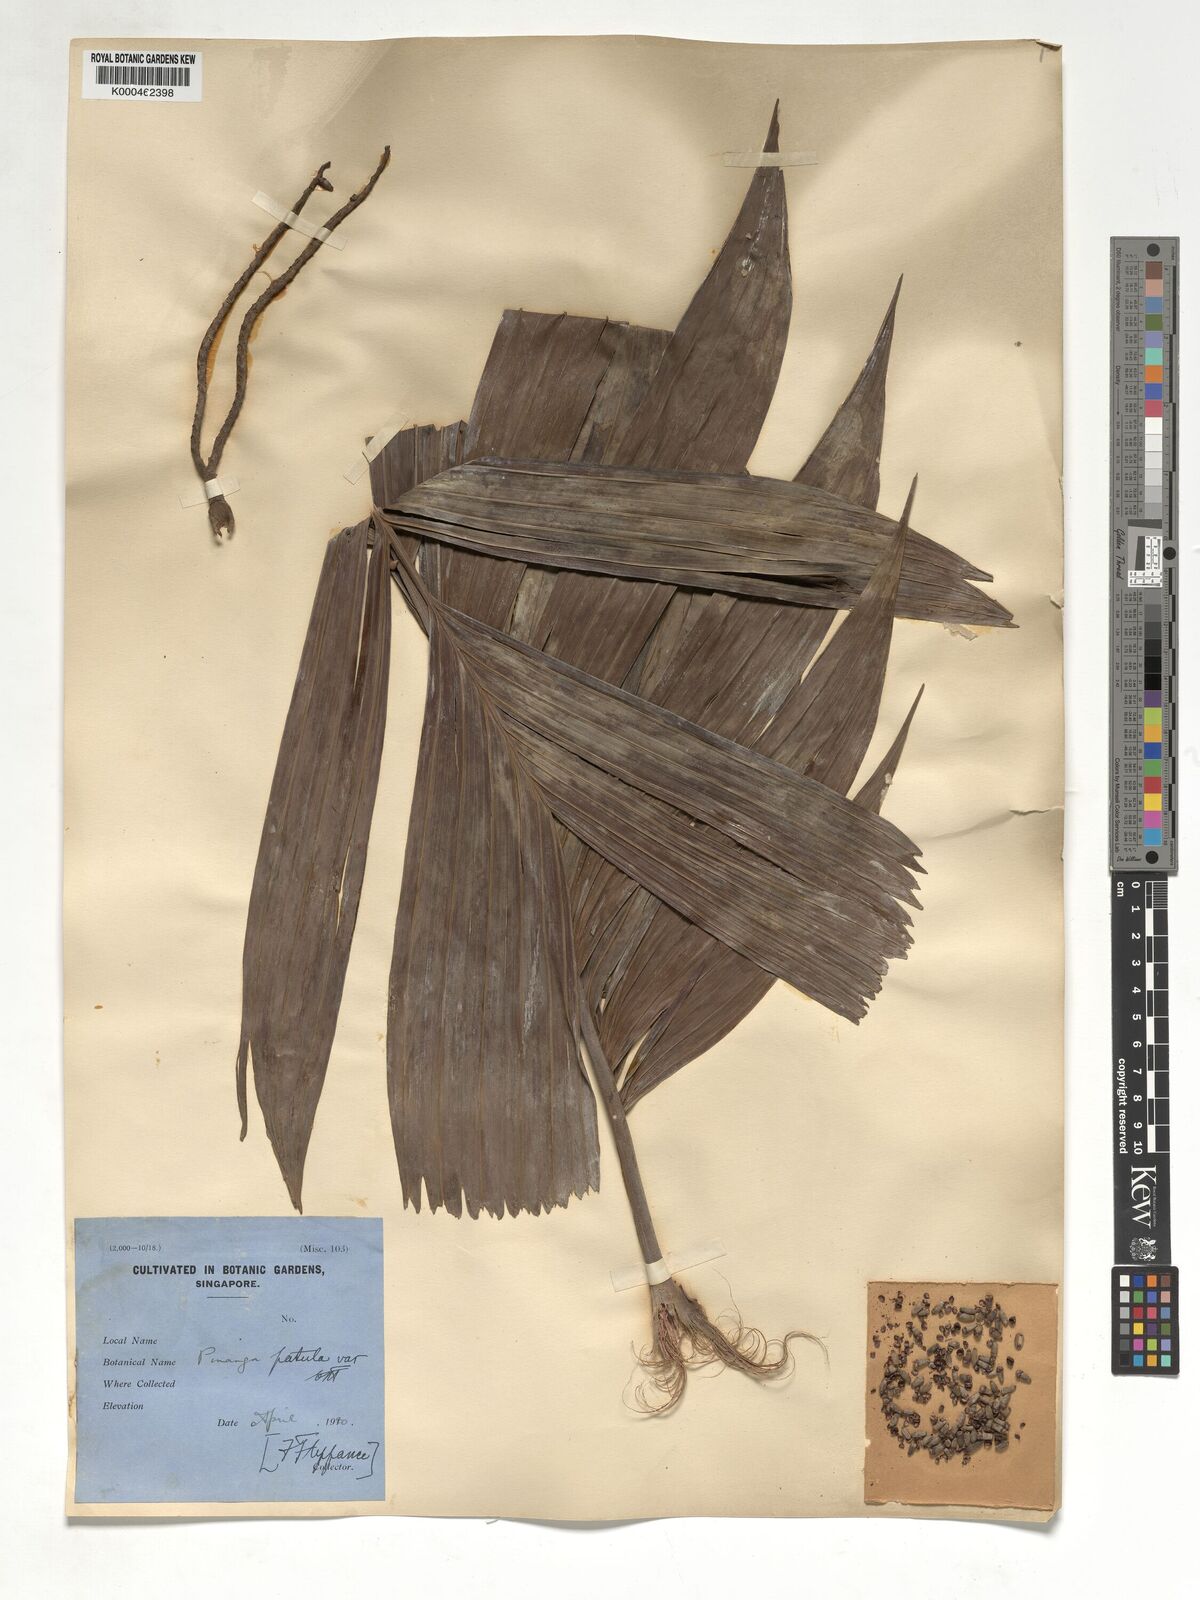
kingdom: Plantae
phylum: Tracheophyta
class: Liliopsida
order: Arecales
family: Arecaceae
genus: Pinanga
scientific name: Pinanga patula
